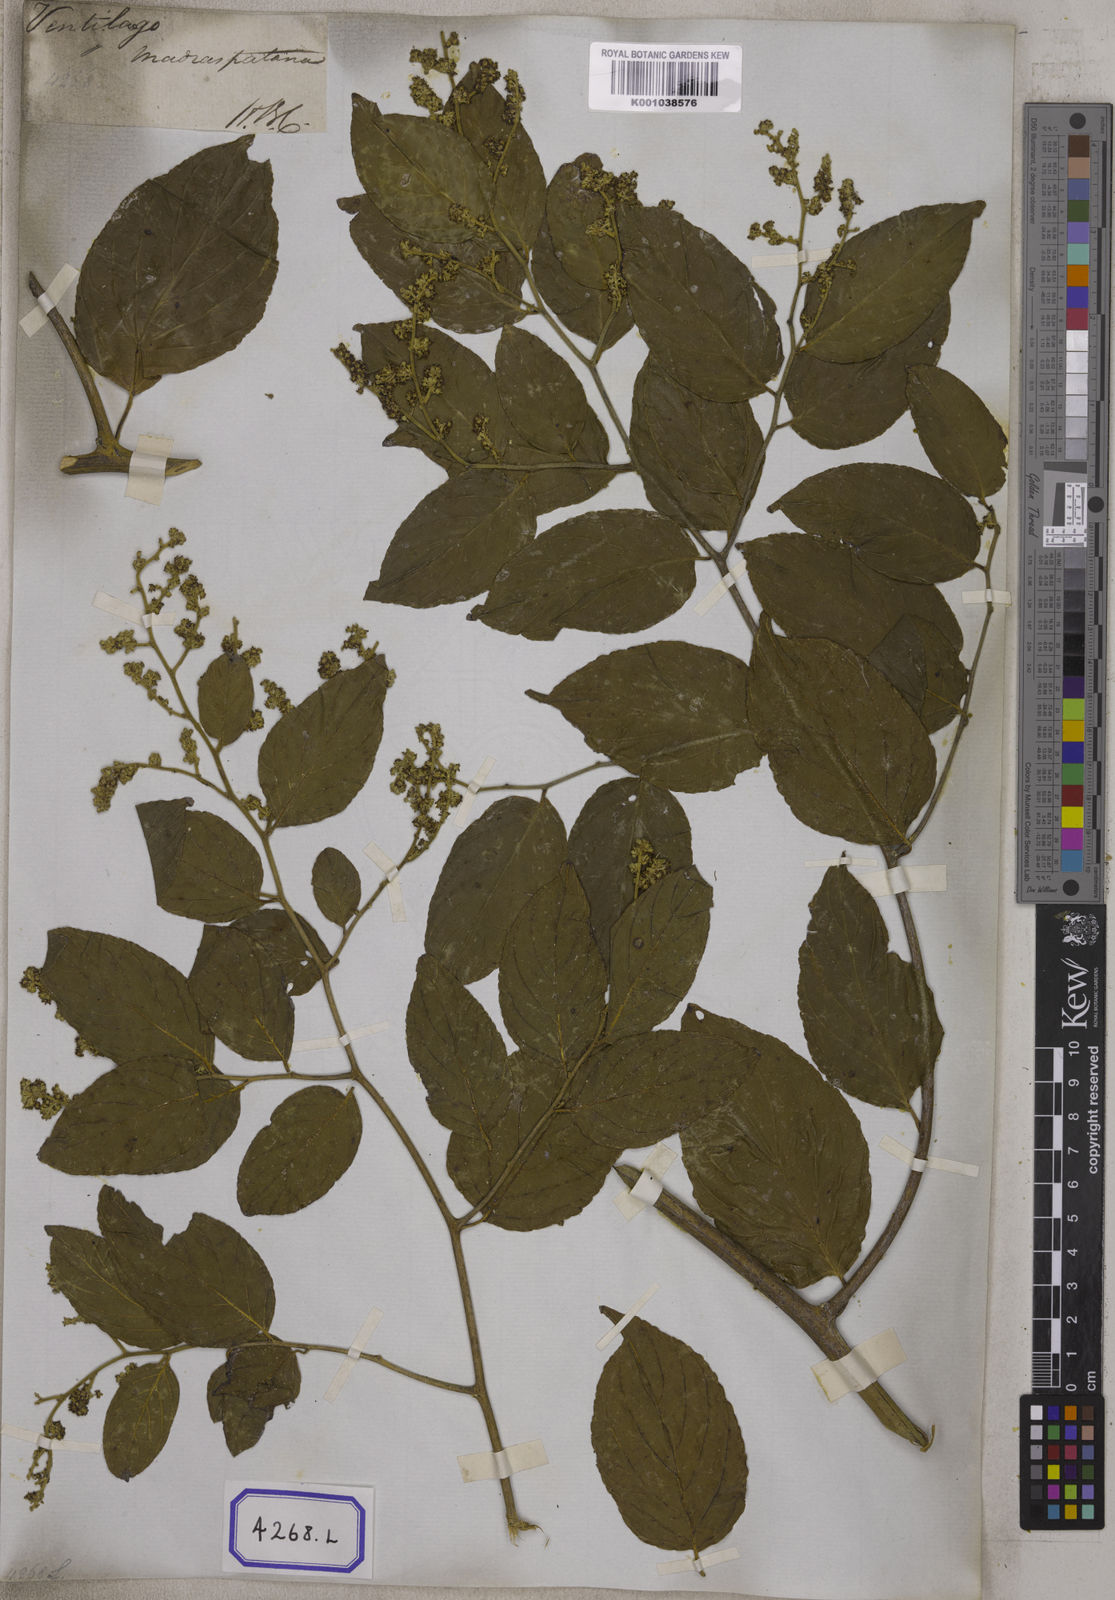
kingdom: Plantae
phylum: Tracheophyta
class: Magnoliopsida
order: Rosales
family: Rhamnaceae
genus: Ventilago
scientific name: Ventilago madraspatana
